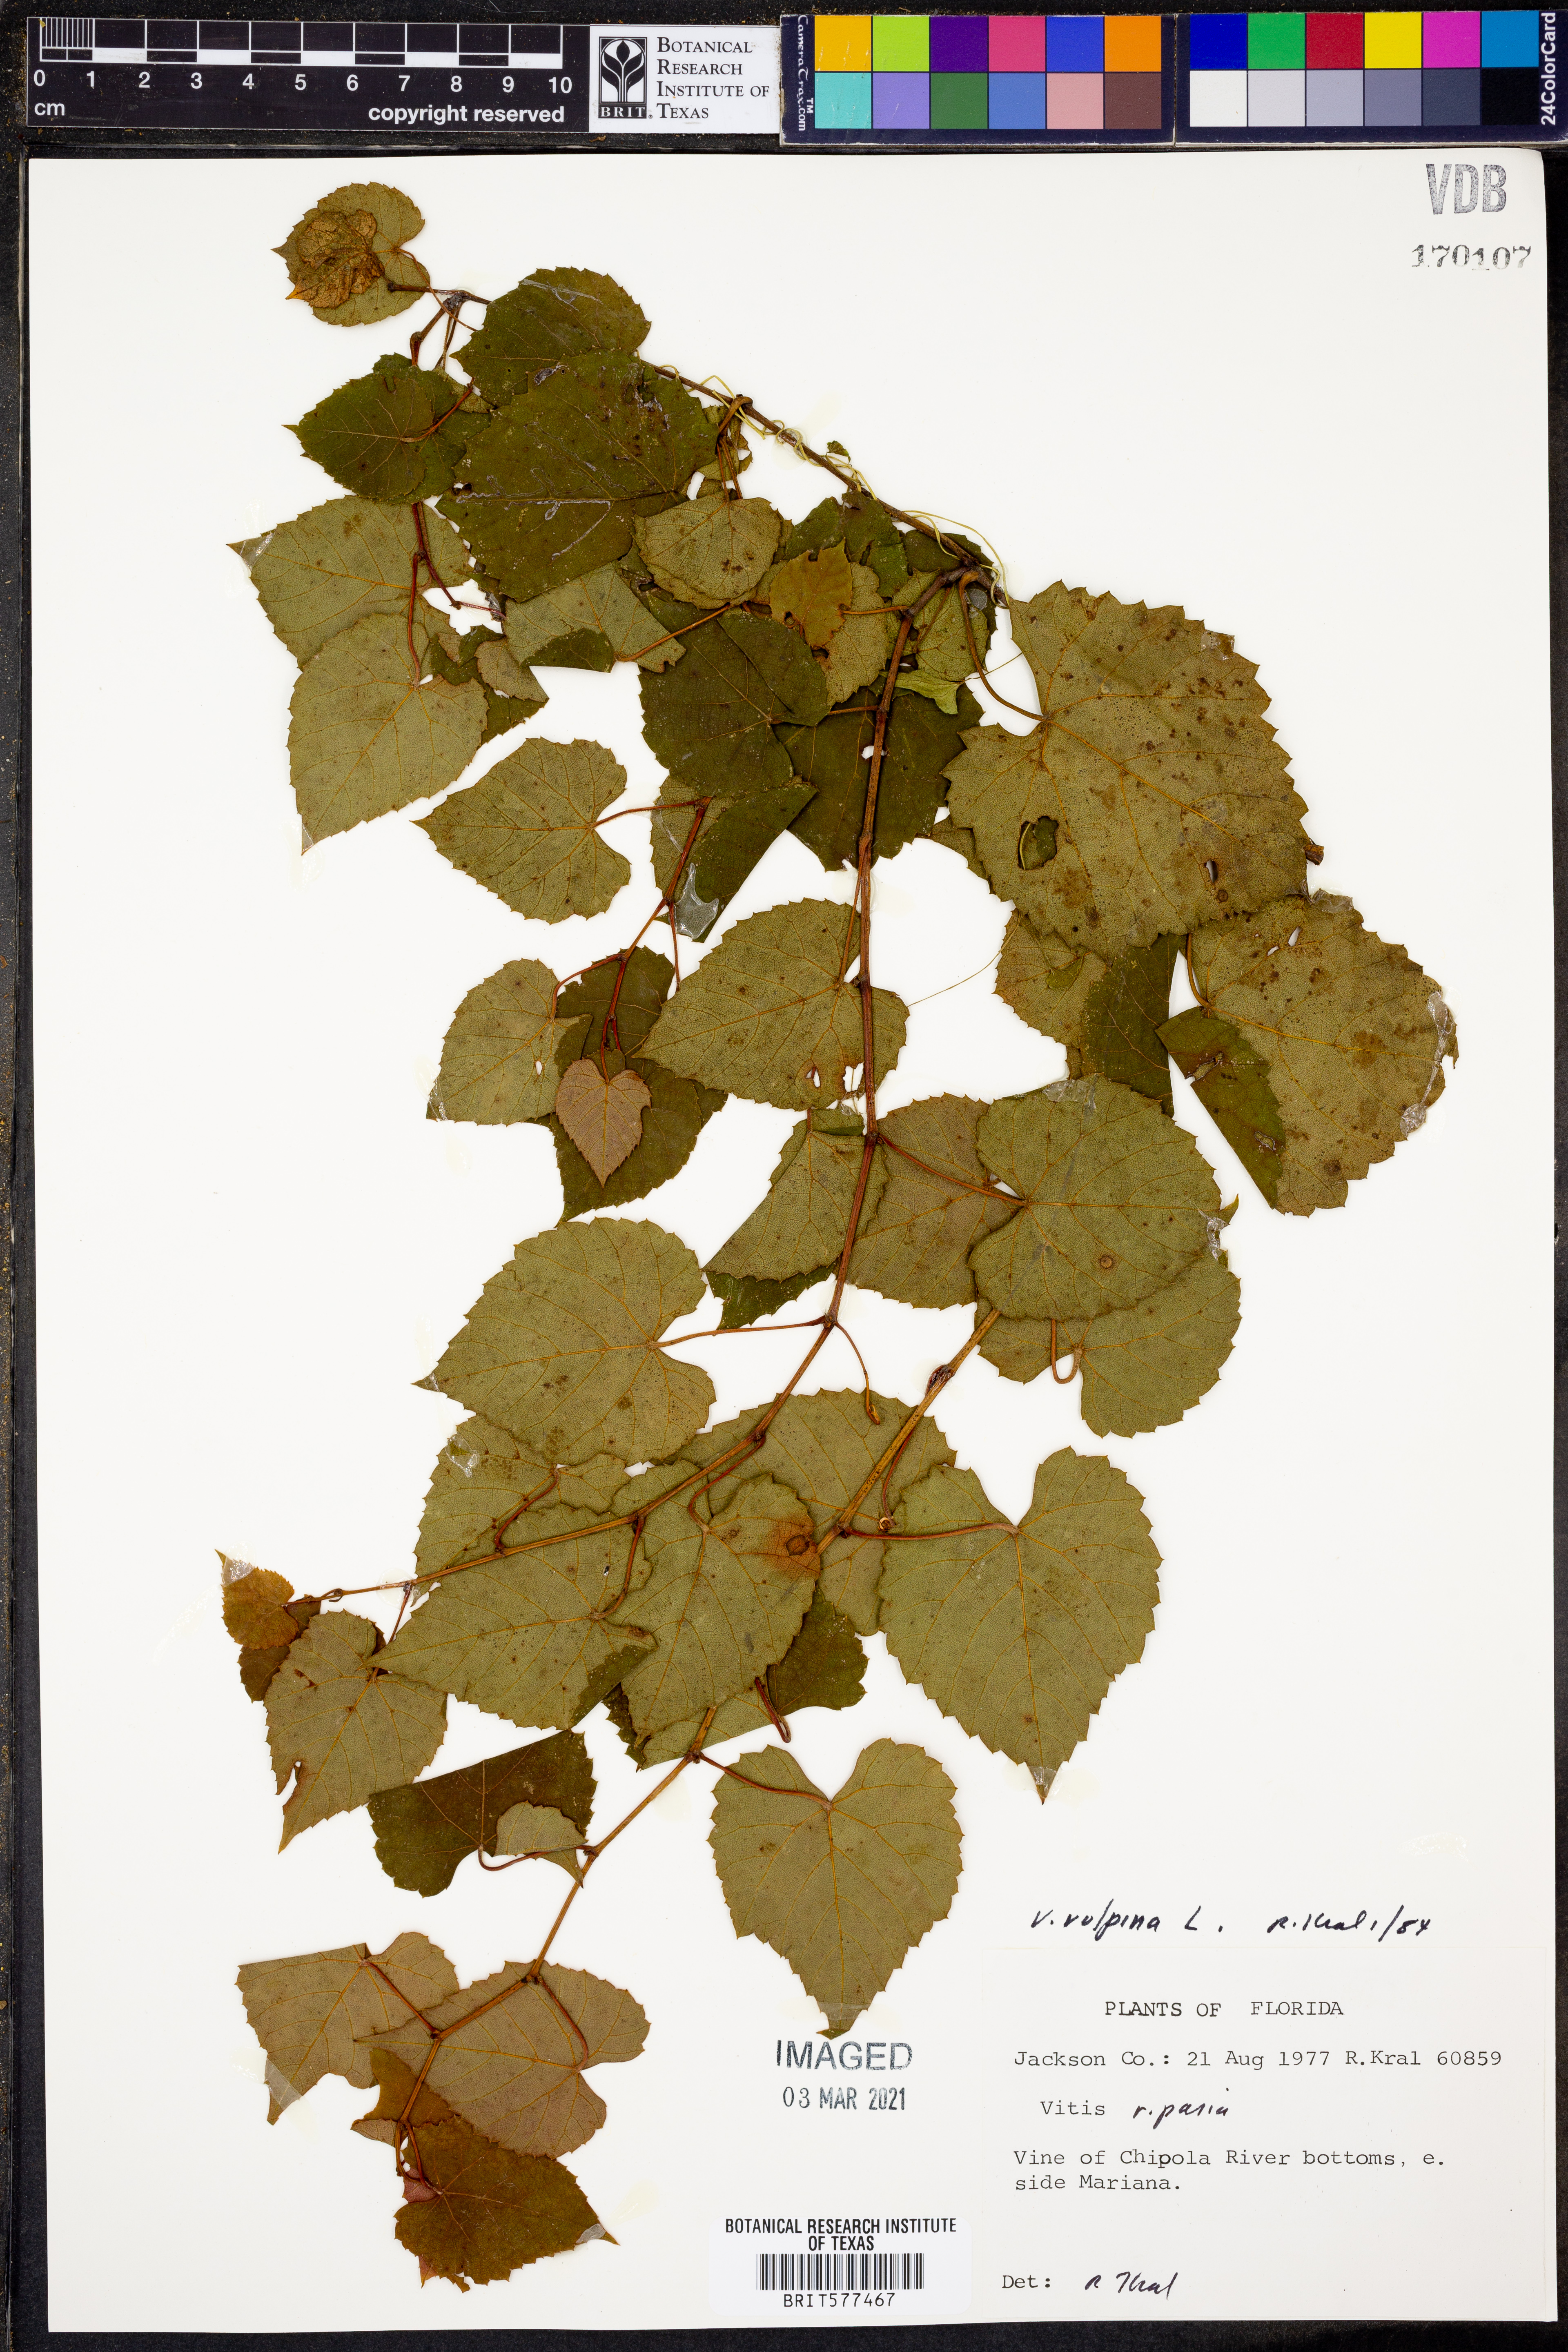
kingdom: Plantae
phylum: Tracheophyta
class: Magnoliopsida
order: Vitales
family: Vitaceae
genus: Vitis
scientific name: Vitis vulpina
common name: Frost grape
